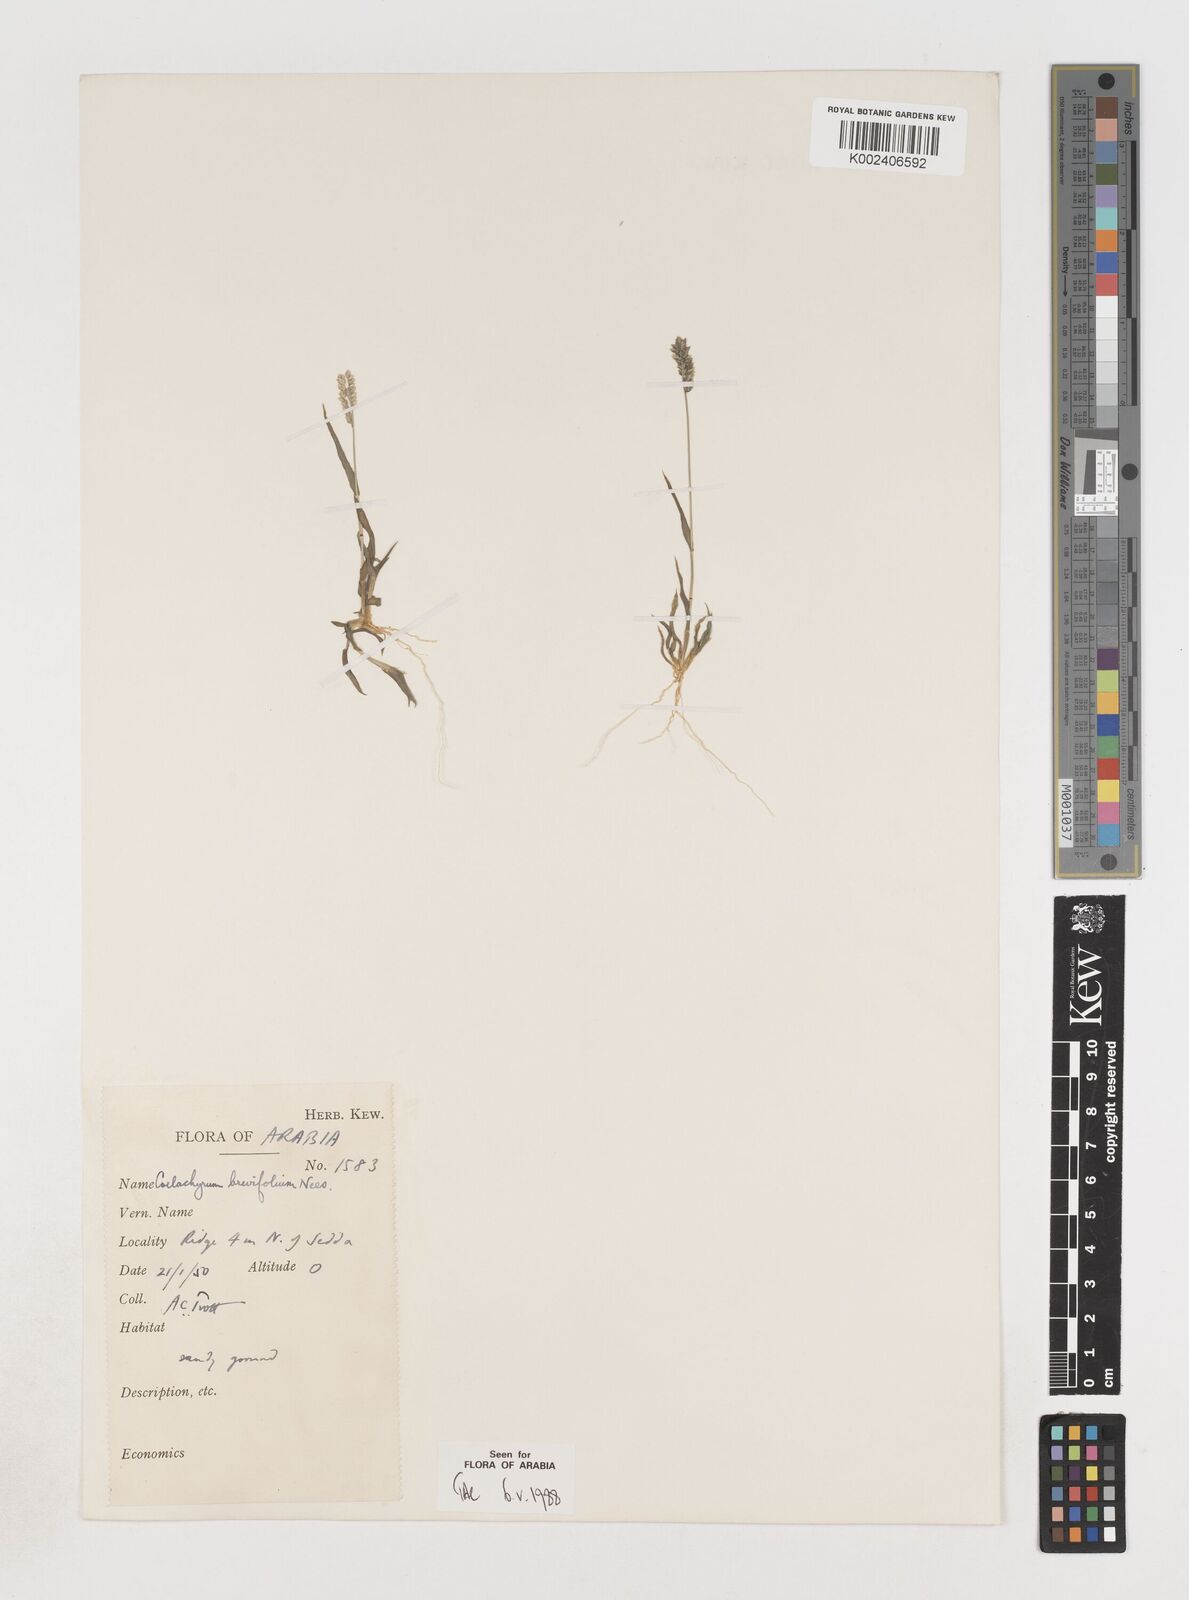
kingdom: Plantae
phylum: Tracheophyta
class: Liliopsida
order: Poales
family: Poaceae
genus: Coelachyrum
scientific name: Coelachyrum brevifolium
